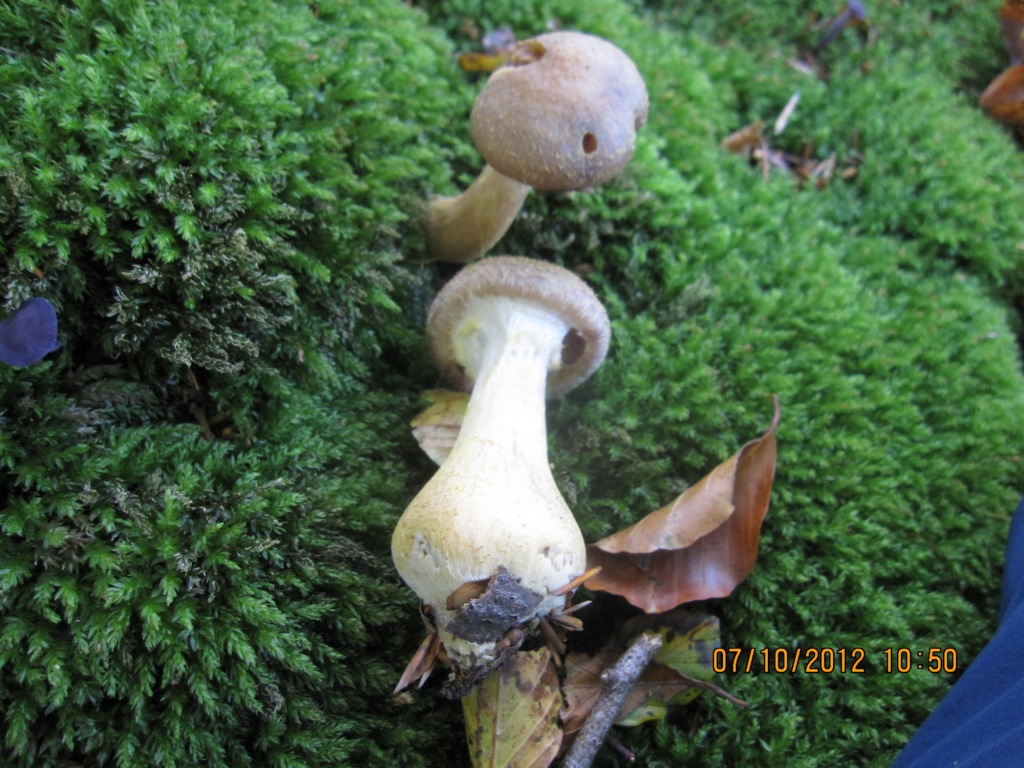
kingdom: Fungi
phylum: Basidiomycota
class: Agaricomycetes
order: Agaricales
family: Physalacriaceae
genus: Armillaria
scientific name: Armillaria lutea
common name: køllestokket honningsvamp
